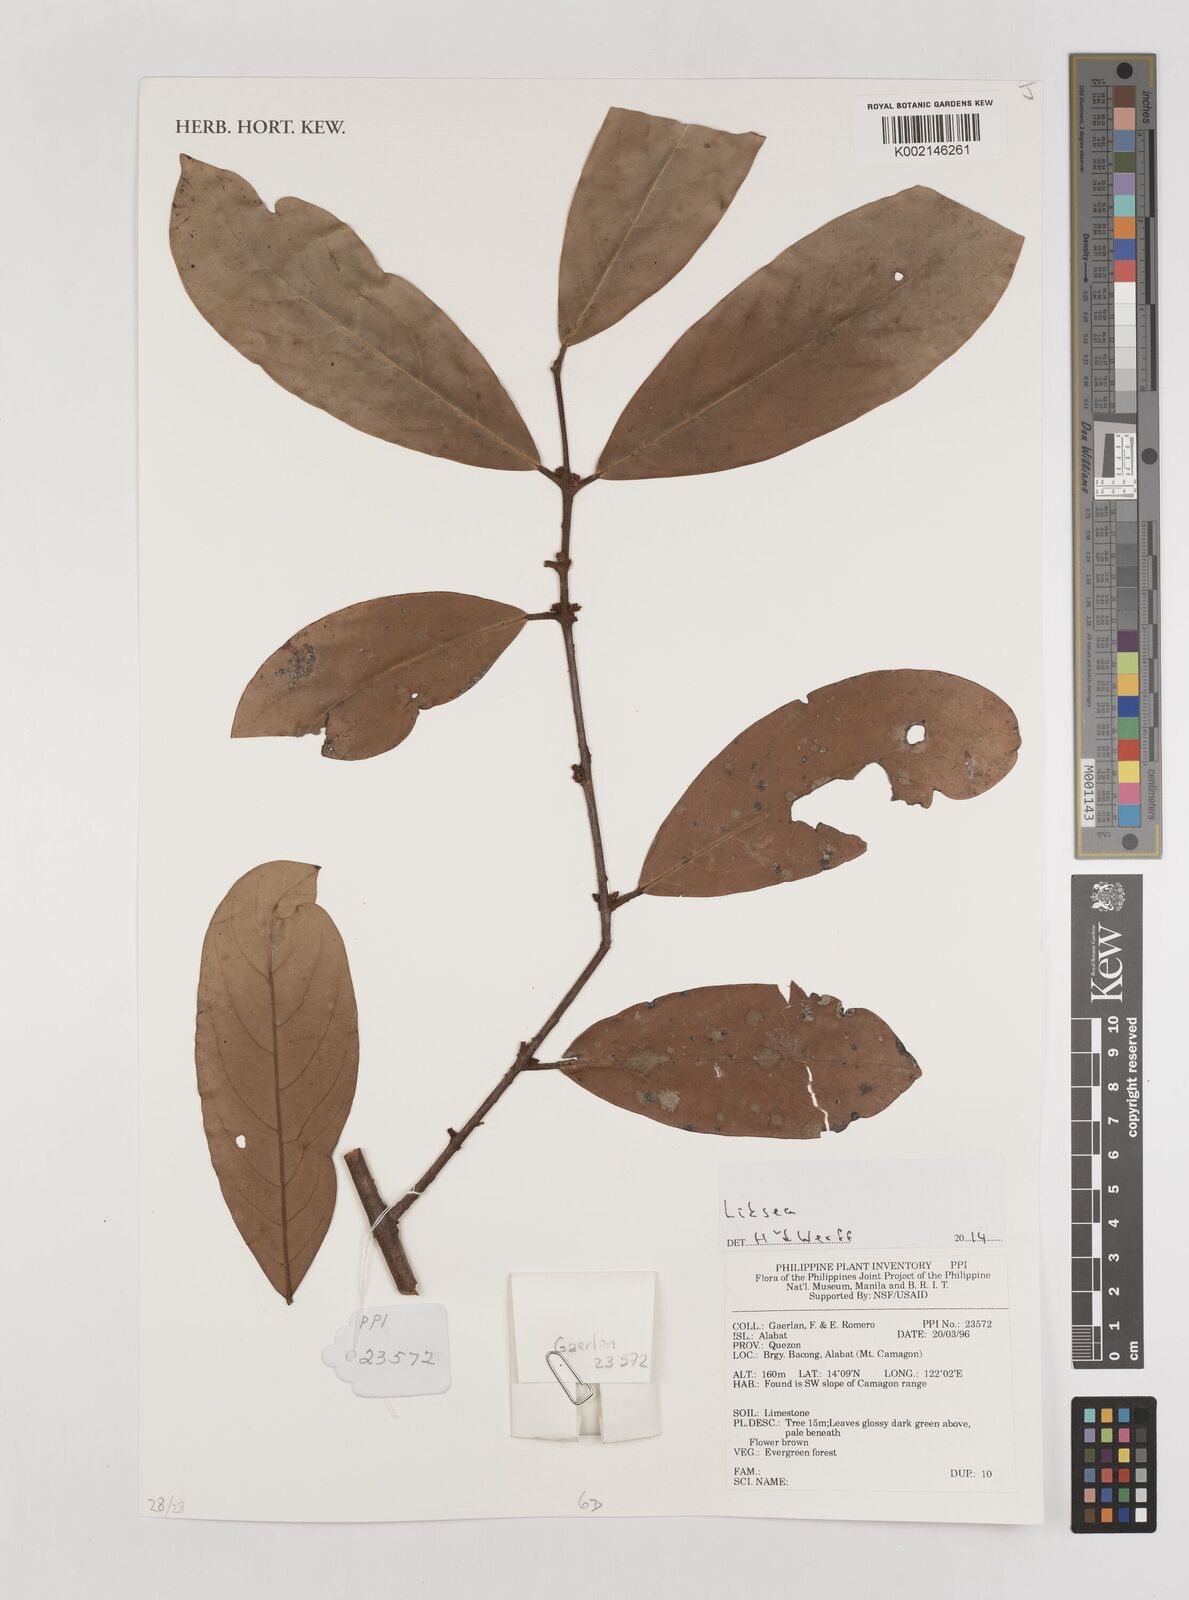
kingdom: Plantae
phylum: Tracheophyta
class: Magnoliopsida
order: Laurales
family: Lauraceae
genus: Litsea
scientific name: Litsea
